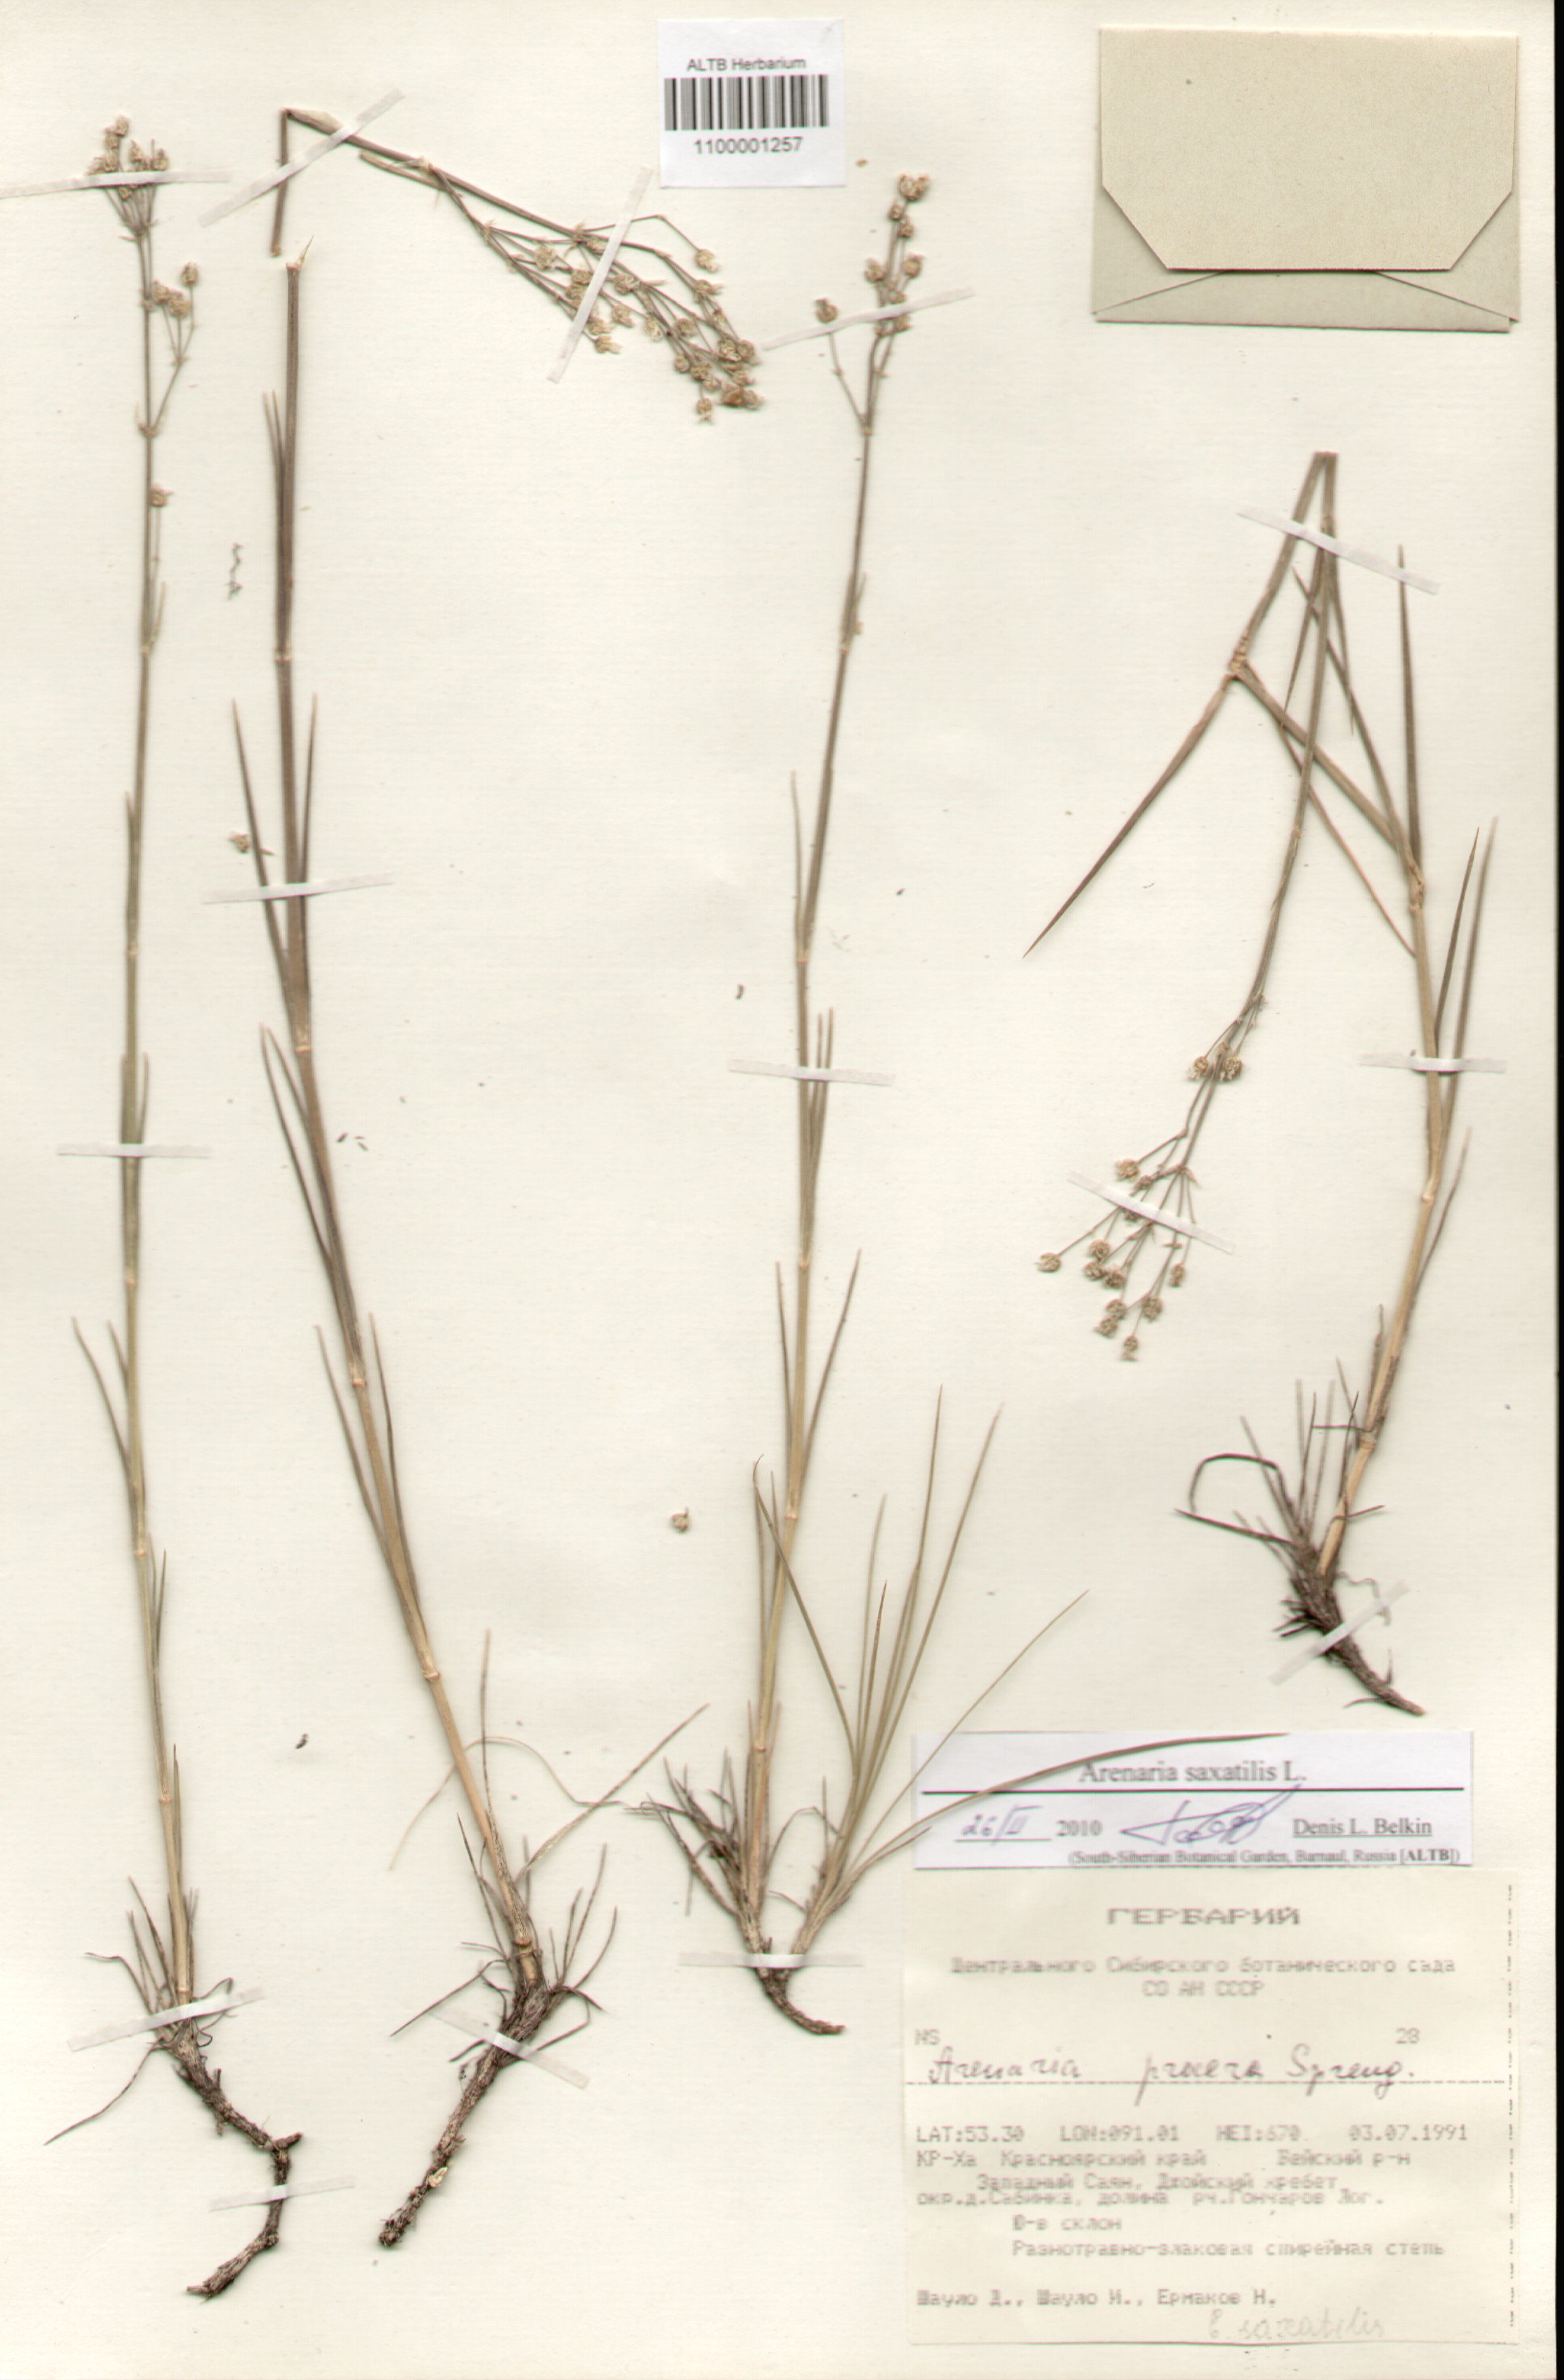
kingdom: Plantae
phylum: Tracheophyta
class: Magnoliopsida
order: Caryophyllales
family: Caryophyllaceae
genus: Eremogone
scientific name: Eremogone saxatilis
